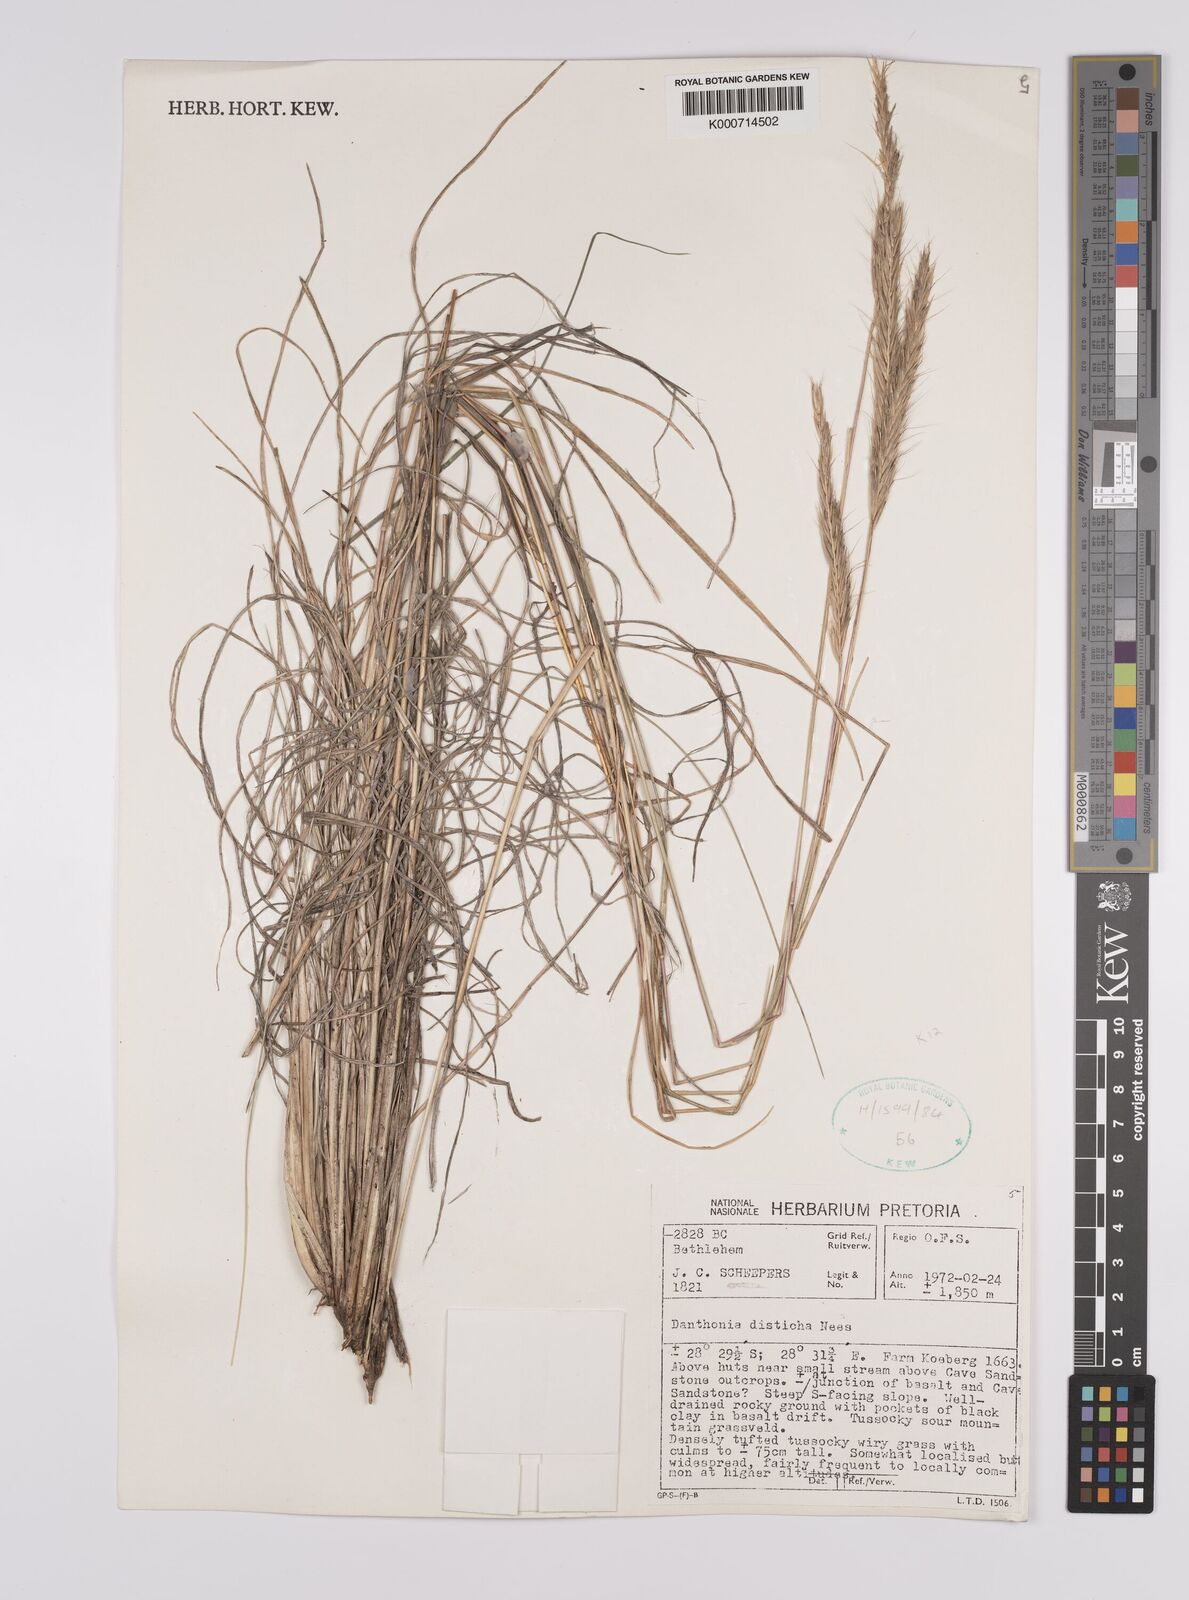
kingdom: Plantae
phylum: Tracheophyta
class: Liliopsida
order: Poales
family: Poaceae
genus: Tenaxia
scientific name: Tenaxia disticha
